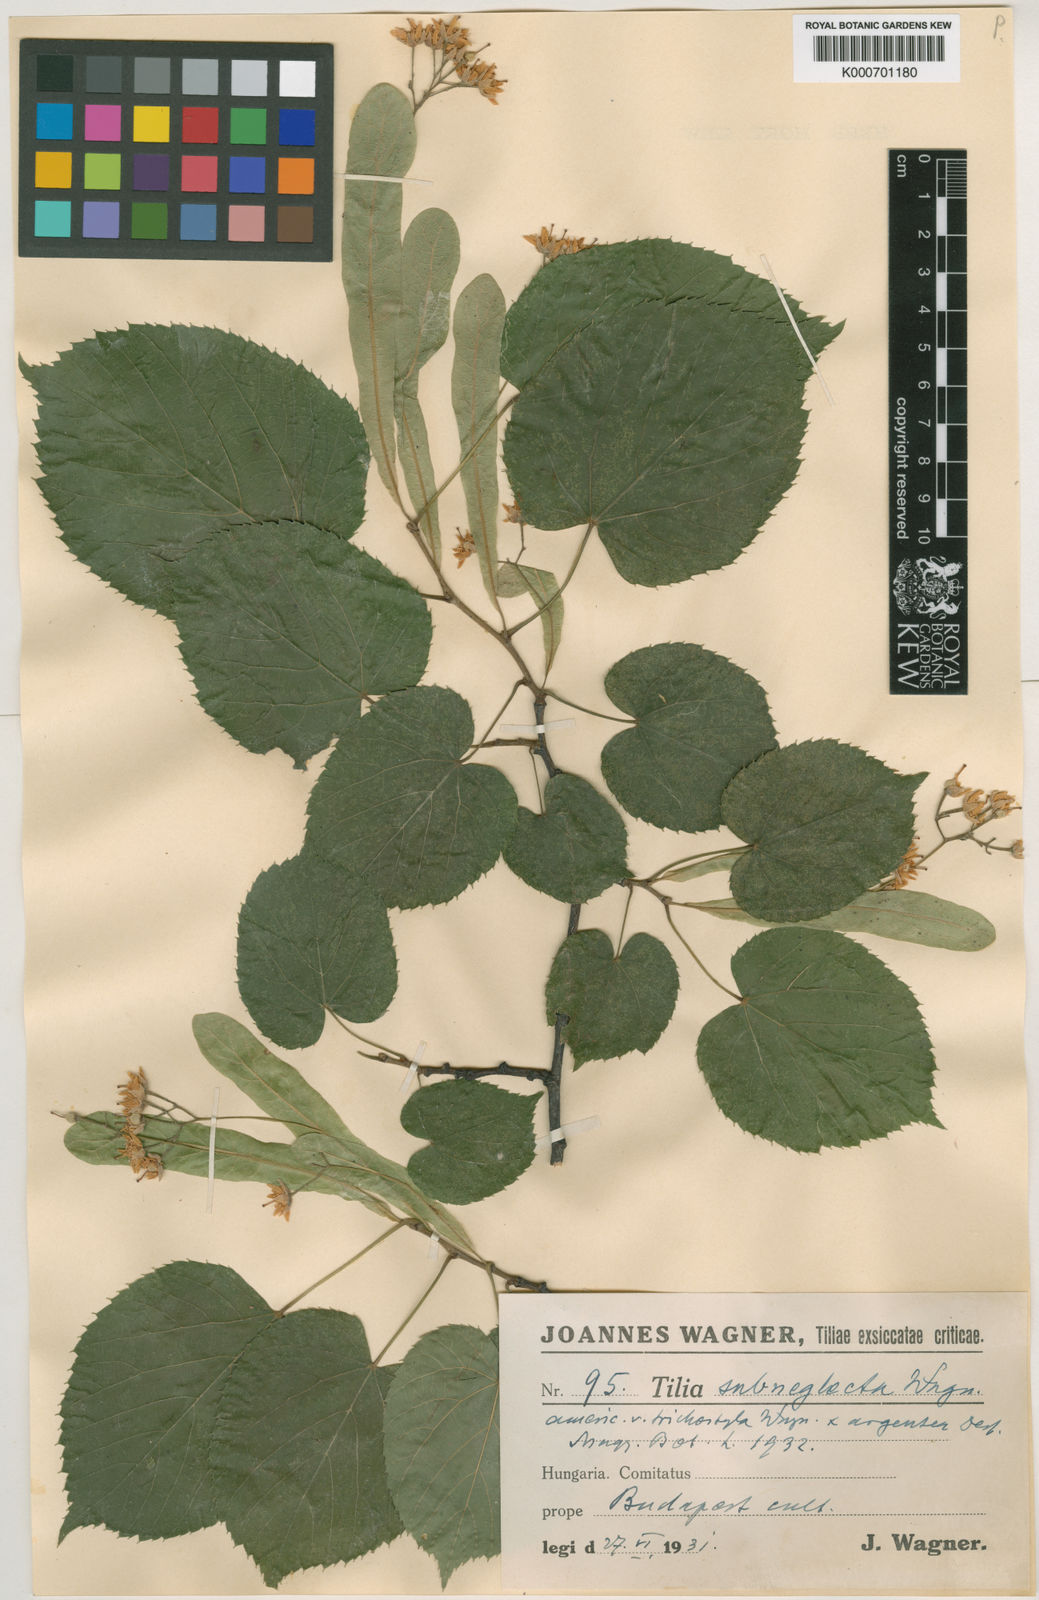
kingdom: Plantae
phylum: Tracheophyta
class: Magnoliopsida
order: Malvales
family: Malvaceae
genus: Tilia
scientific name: Tilia moltkei
